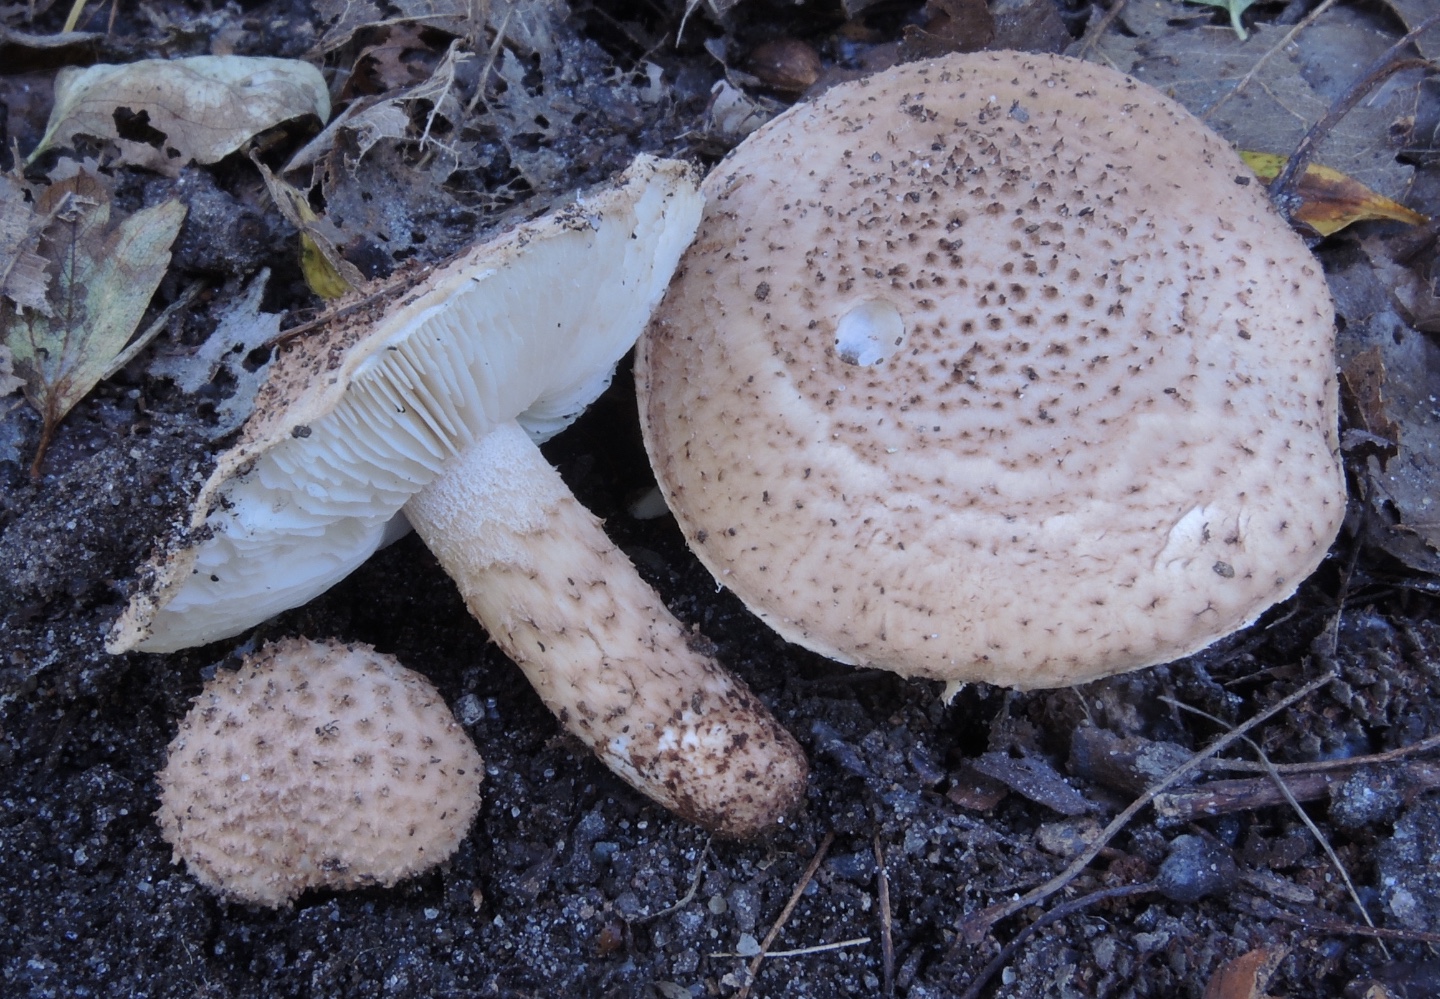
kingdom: Fungi
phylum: Basidiomycota
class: Agaricomycetes
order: Agaricales
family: Agaricaceae
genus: Echinoderma
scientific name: Echinoderma echinaceum
